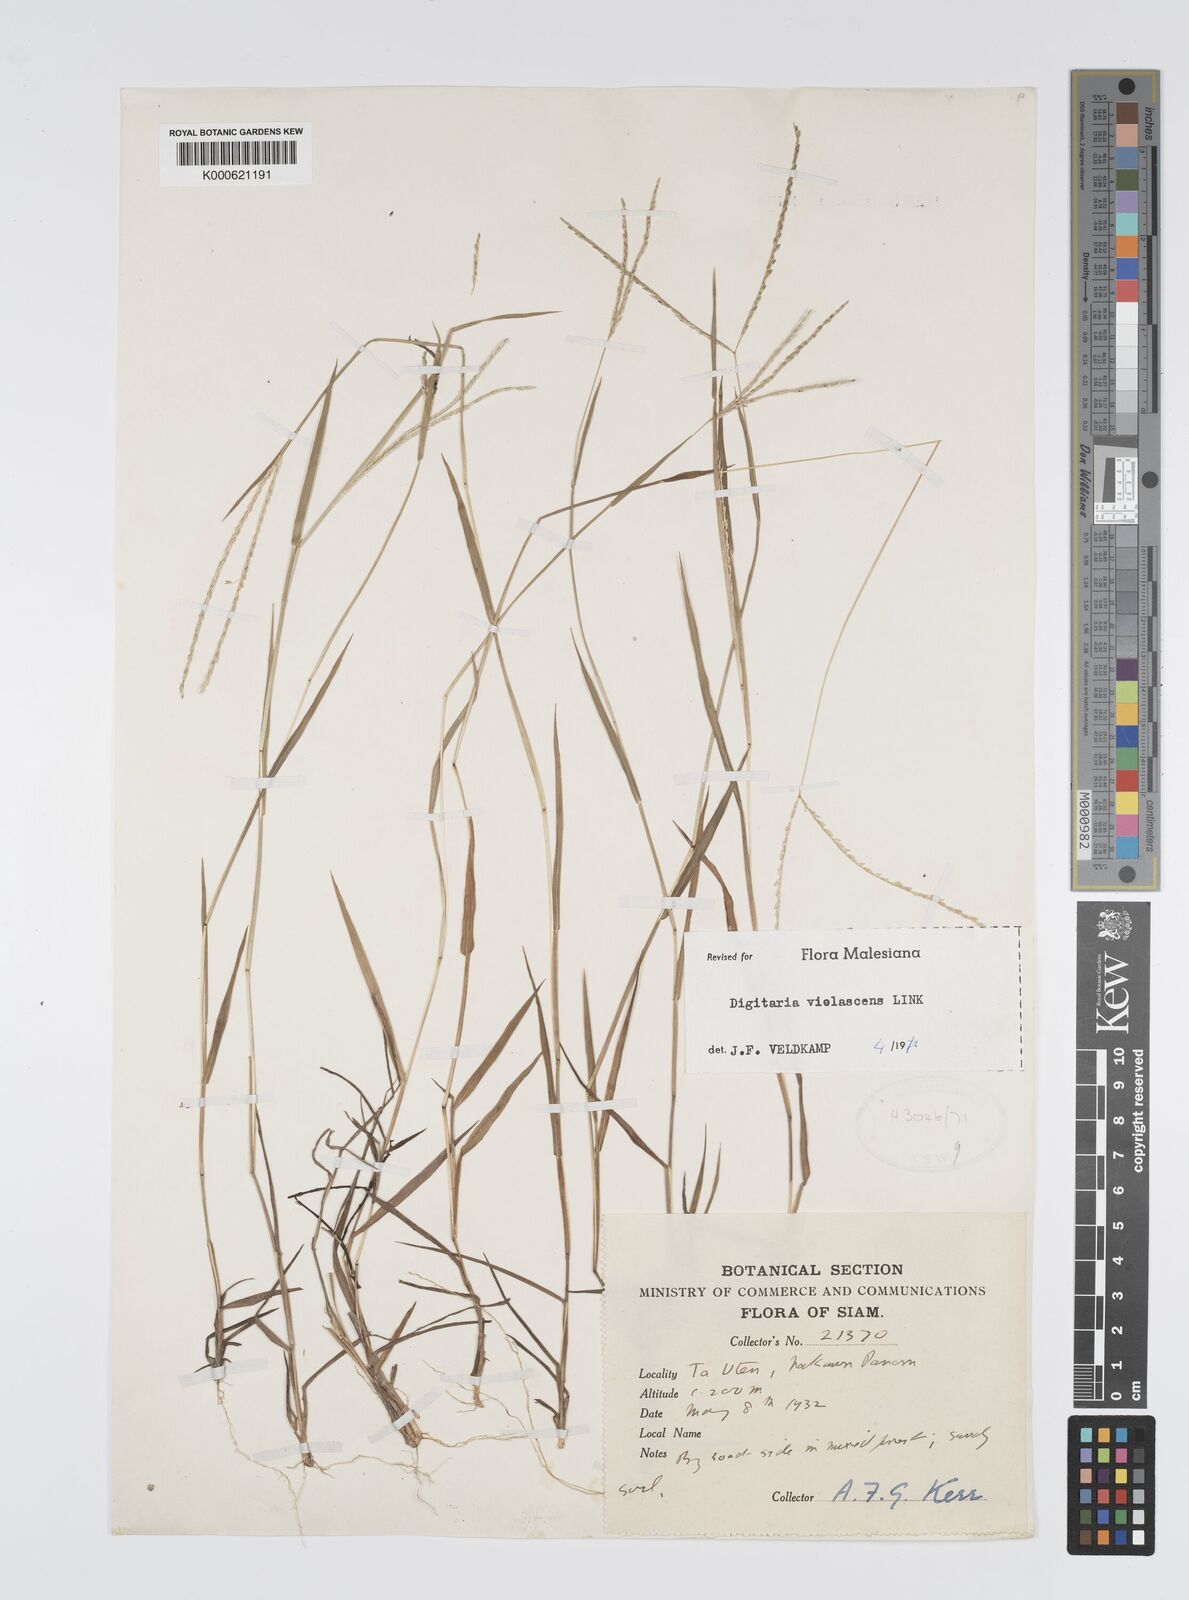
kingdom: Plantae
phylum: Tracheophyta
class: Liliopsida
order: Poales
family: Poaceae
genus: Digitaria
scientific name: Digitaria violascens
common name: Violet crabgrass
